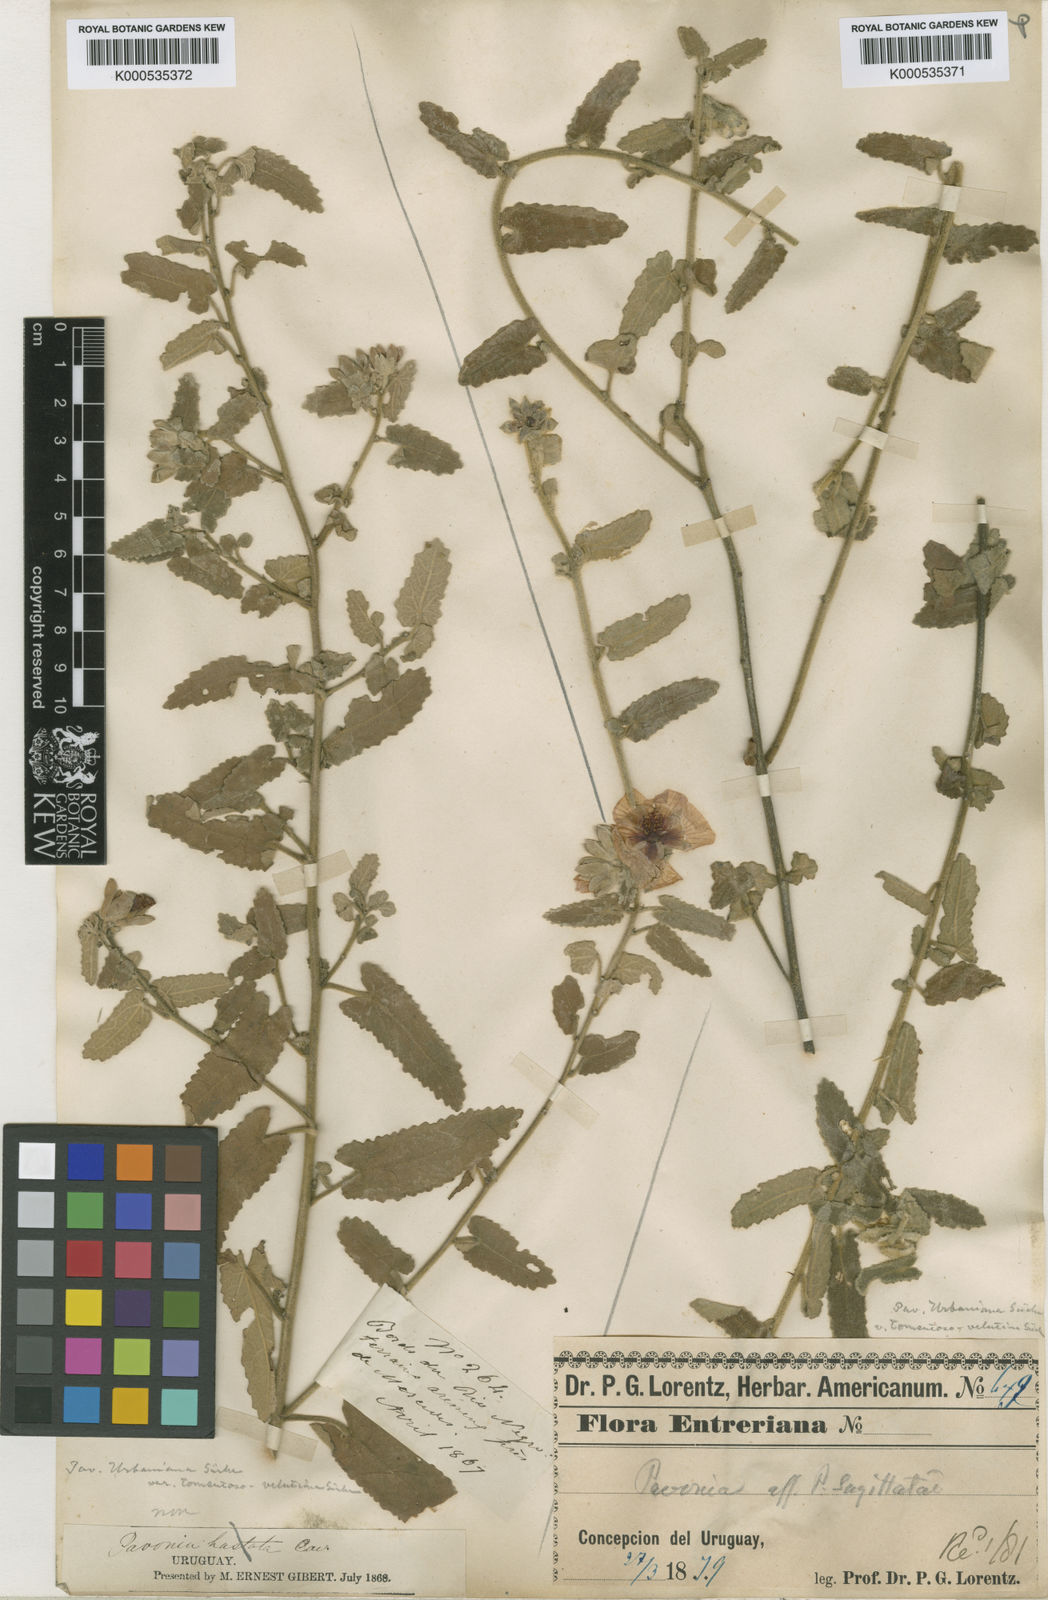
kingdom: Plantae
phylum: Tracheophyta
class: Magnoliopsida
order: Malvales
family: Malvaceae
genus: Pavonia
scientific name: Pavonia
